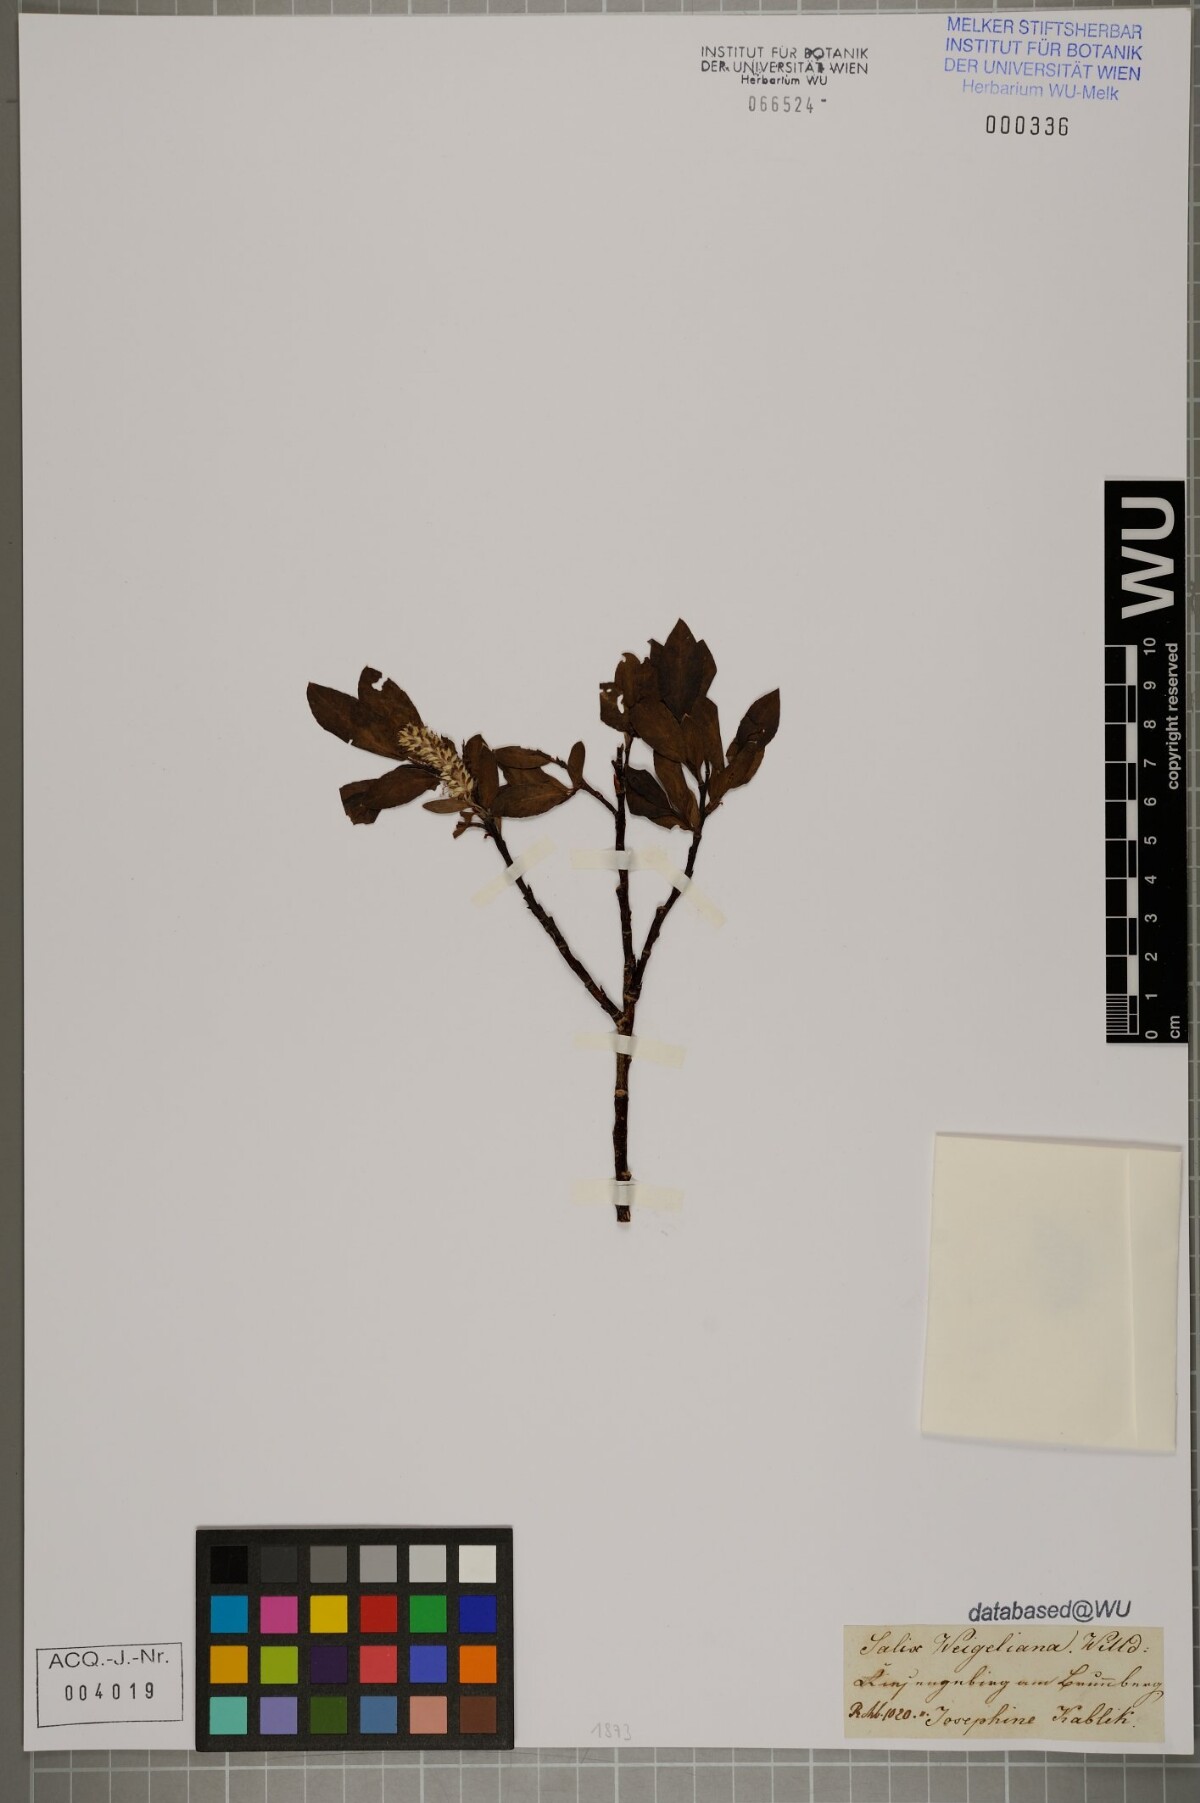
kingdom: Plantae
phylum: Tracheophyta
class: Magnoliopsida
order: Malpighiales
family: Salicaceae
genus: Salix
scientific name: Salix bicolor
